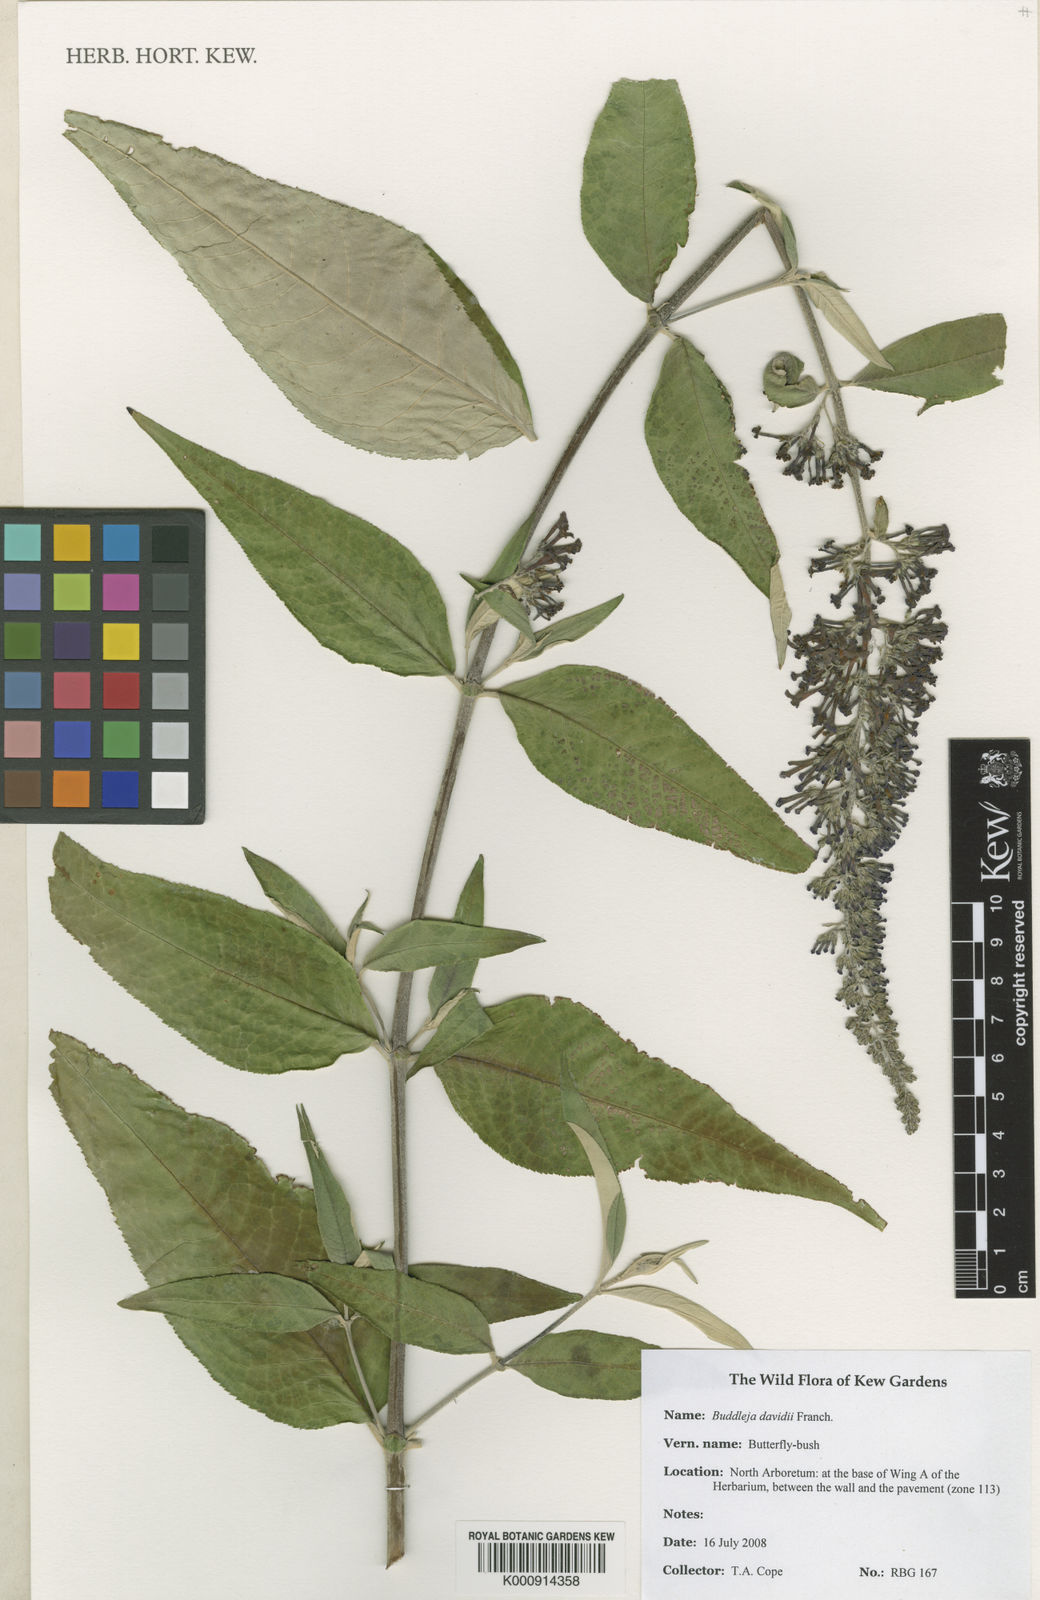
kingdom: Plantae
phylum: Tracheophyta
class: Magnoliopsida
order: Lamiales
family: Scrophulariaceae
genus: Buddleja
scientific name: Buddleja davidii
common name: Butterfly-bush
